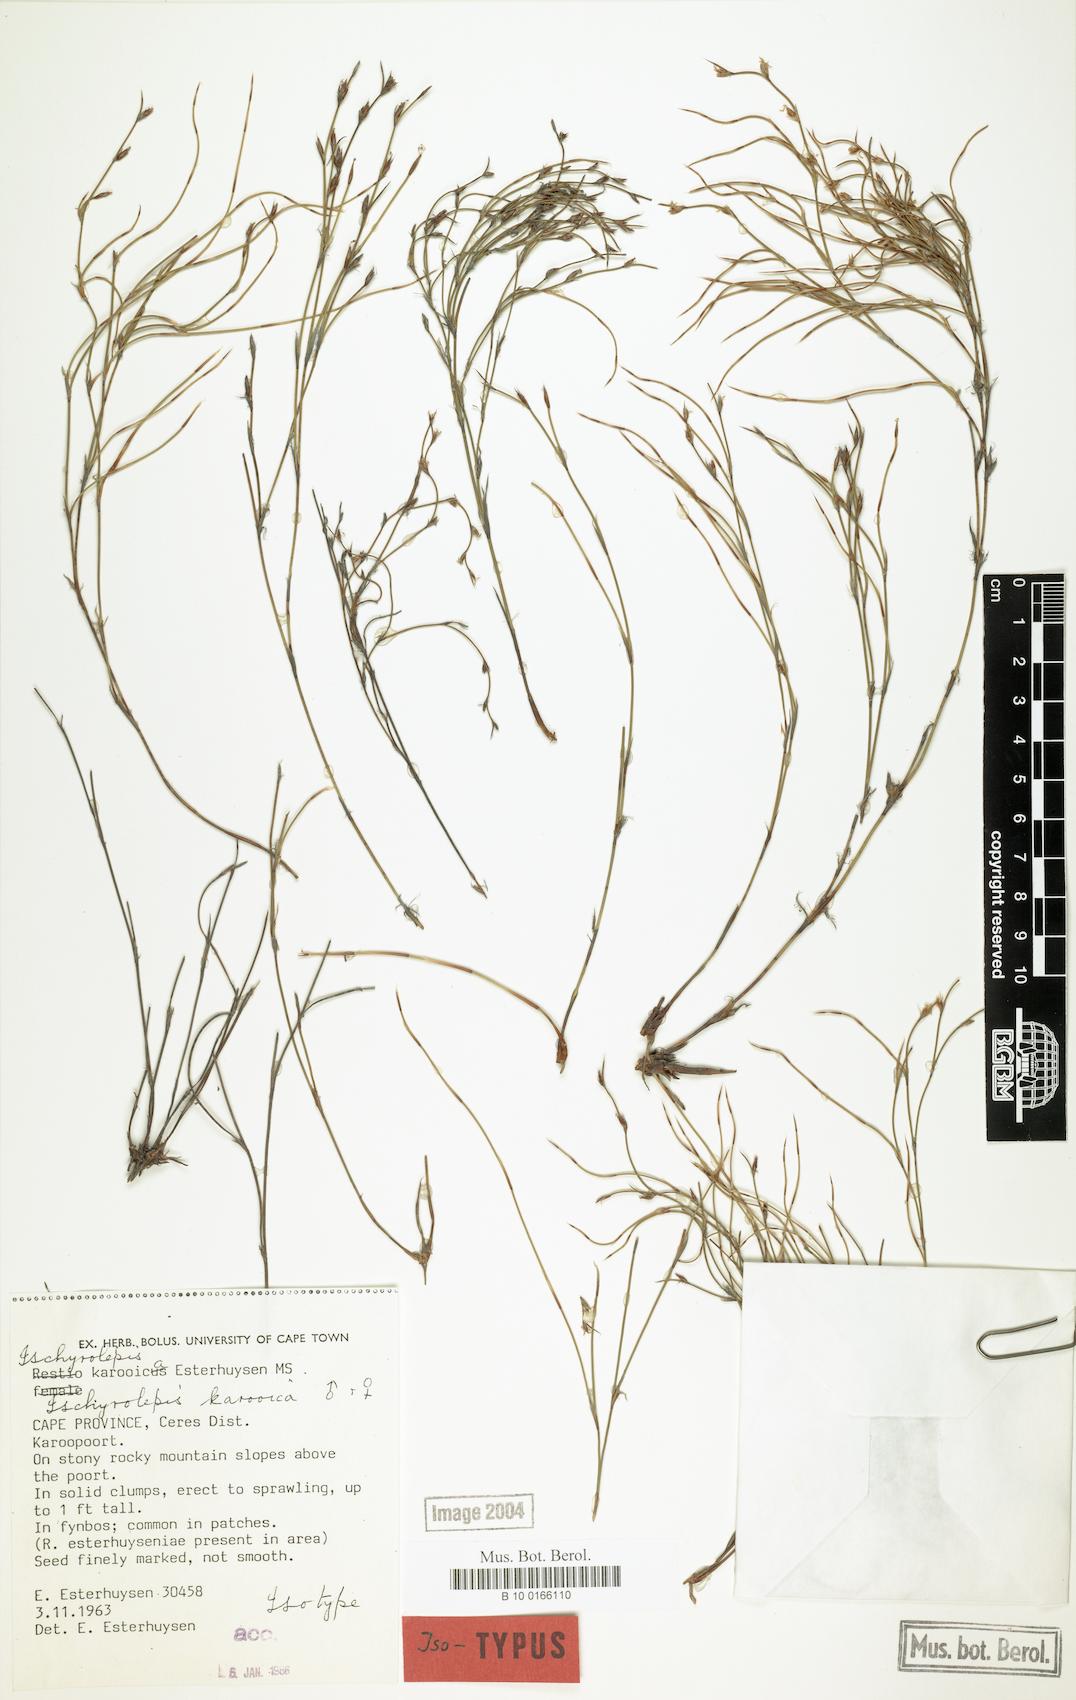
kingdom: Plantae
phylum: Tracheophyta
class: Liliopsida
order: Poales
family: Restionaceae
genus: Restio
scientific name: Restio karooicus
